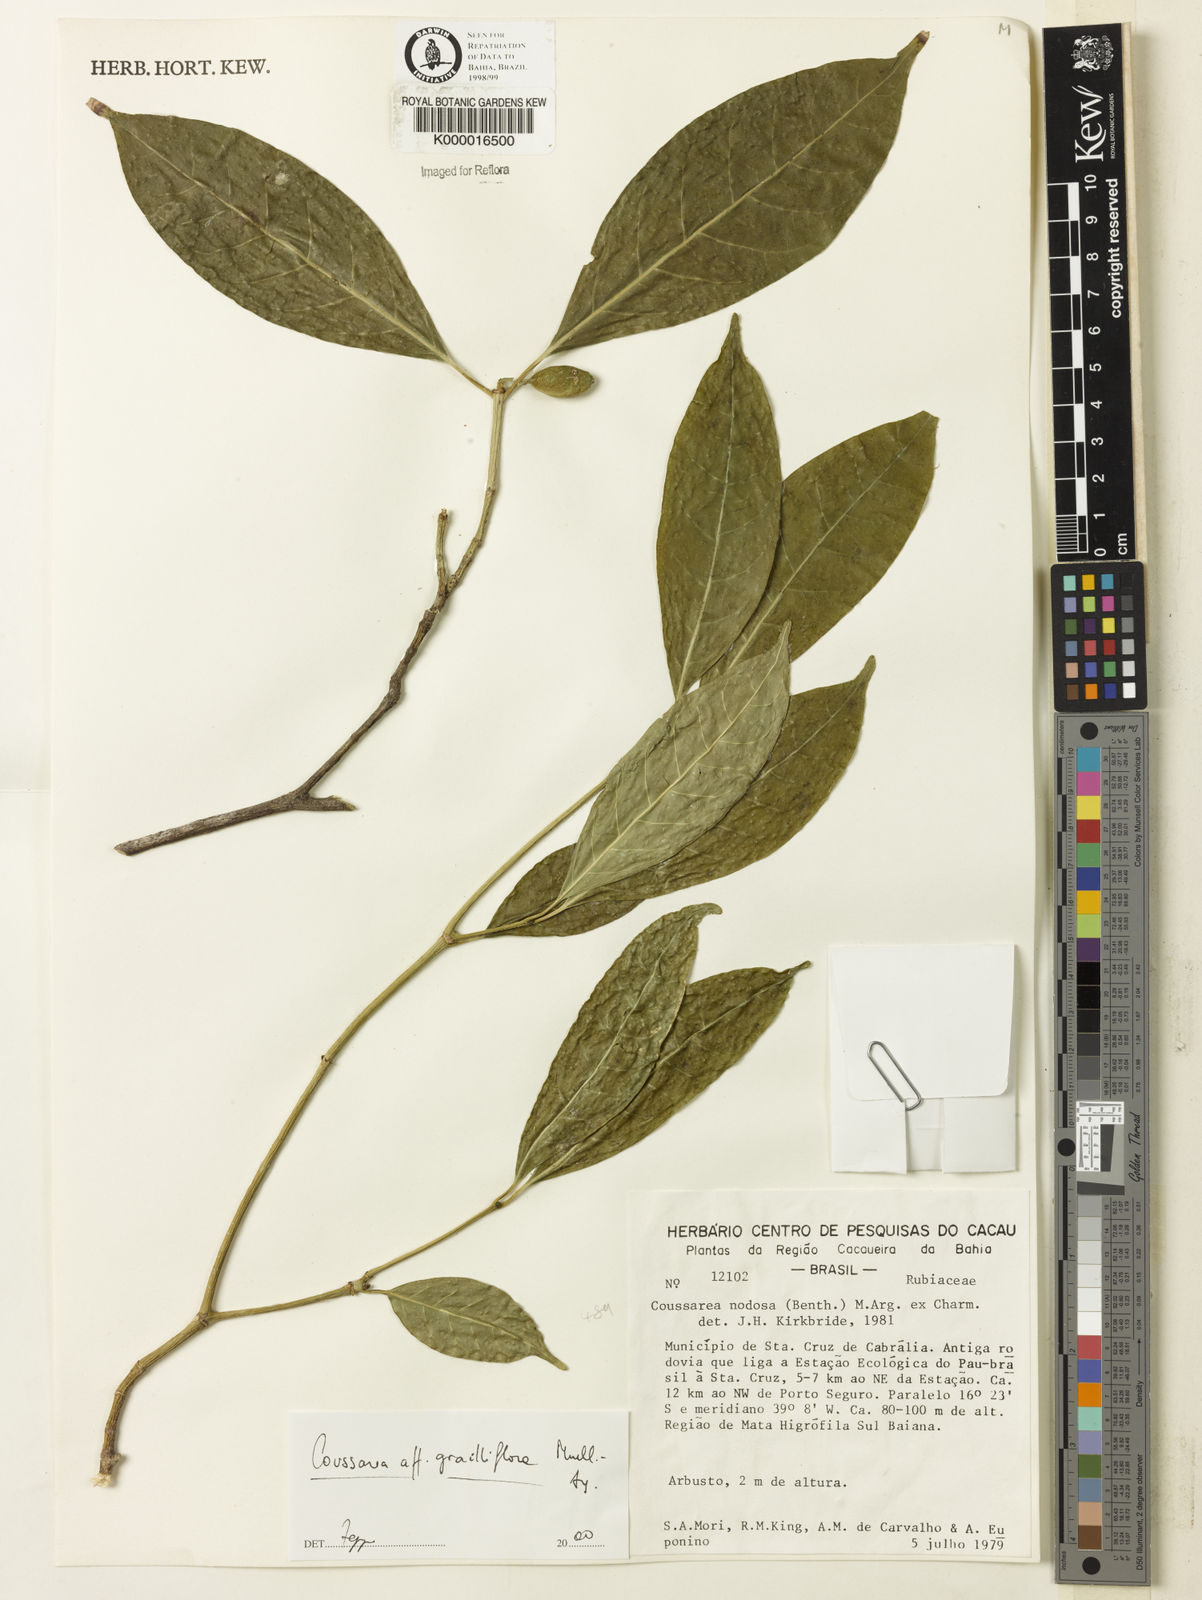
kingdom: Plantae
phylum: Tracheophyta
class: Magnoliopsida
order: Gentianales
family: Rubiaceae
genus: Coussarea
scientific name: Coussarea
